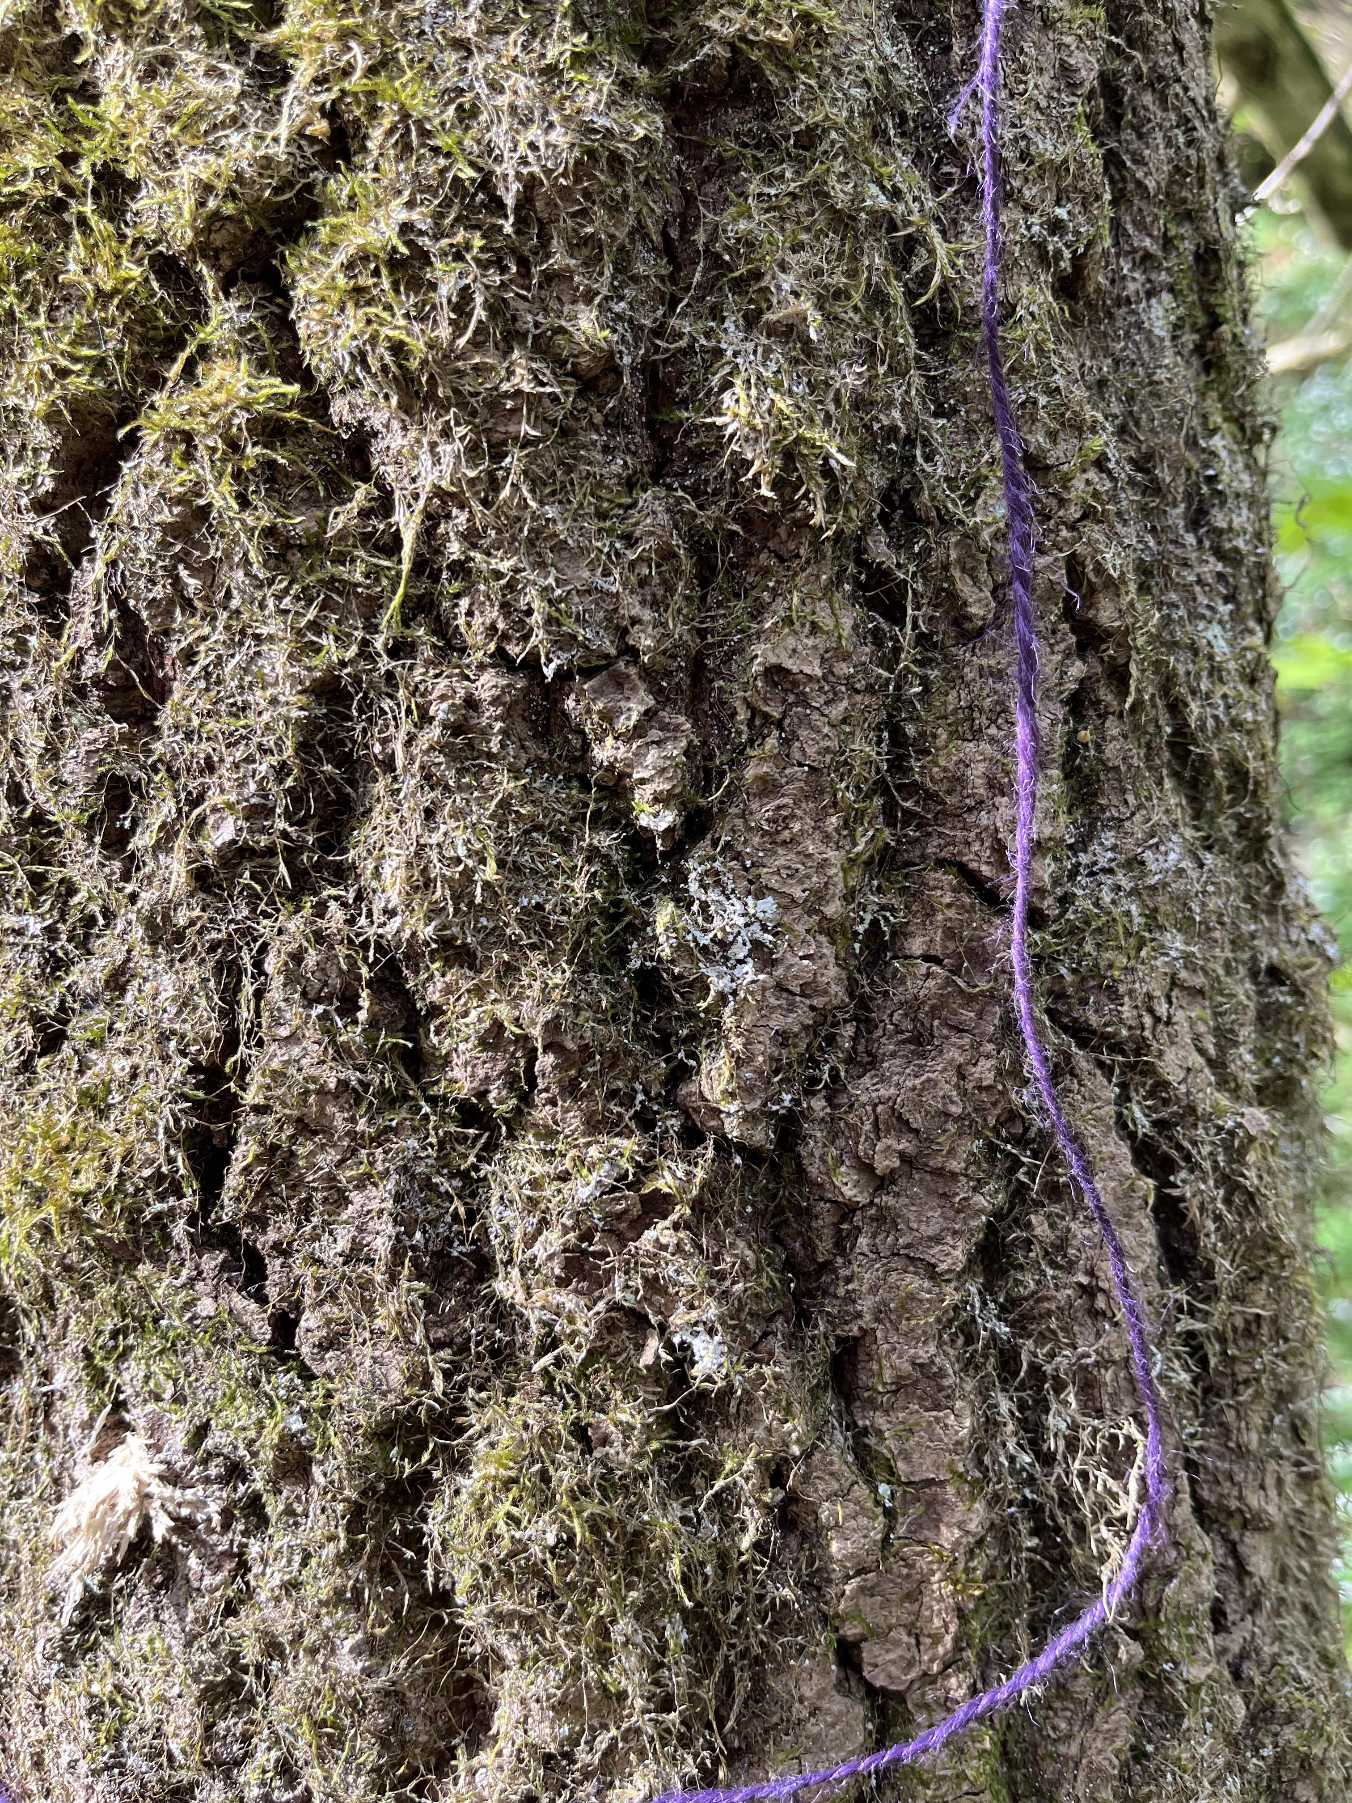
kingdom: Fungi
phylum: Ascomycota
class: Lecanoromycetes
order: Lecanorales
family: Stereocaulaceae
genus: Lepraria
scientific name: Lepraria
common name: Støvlav
